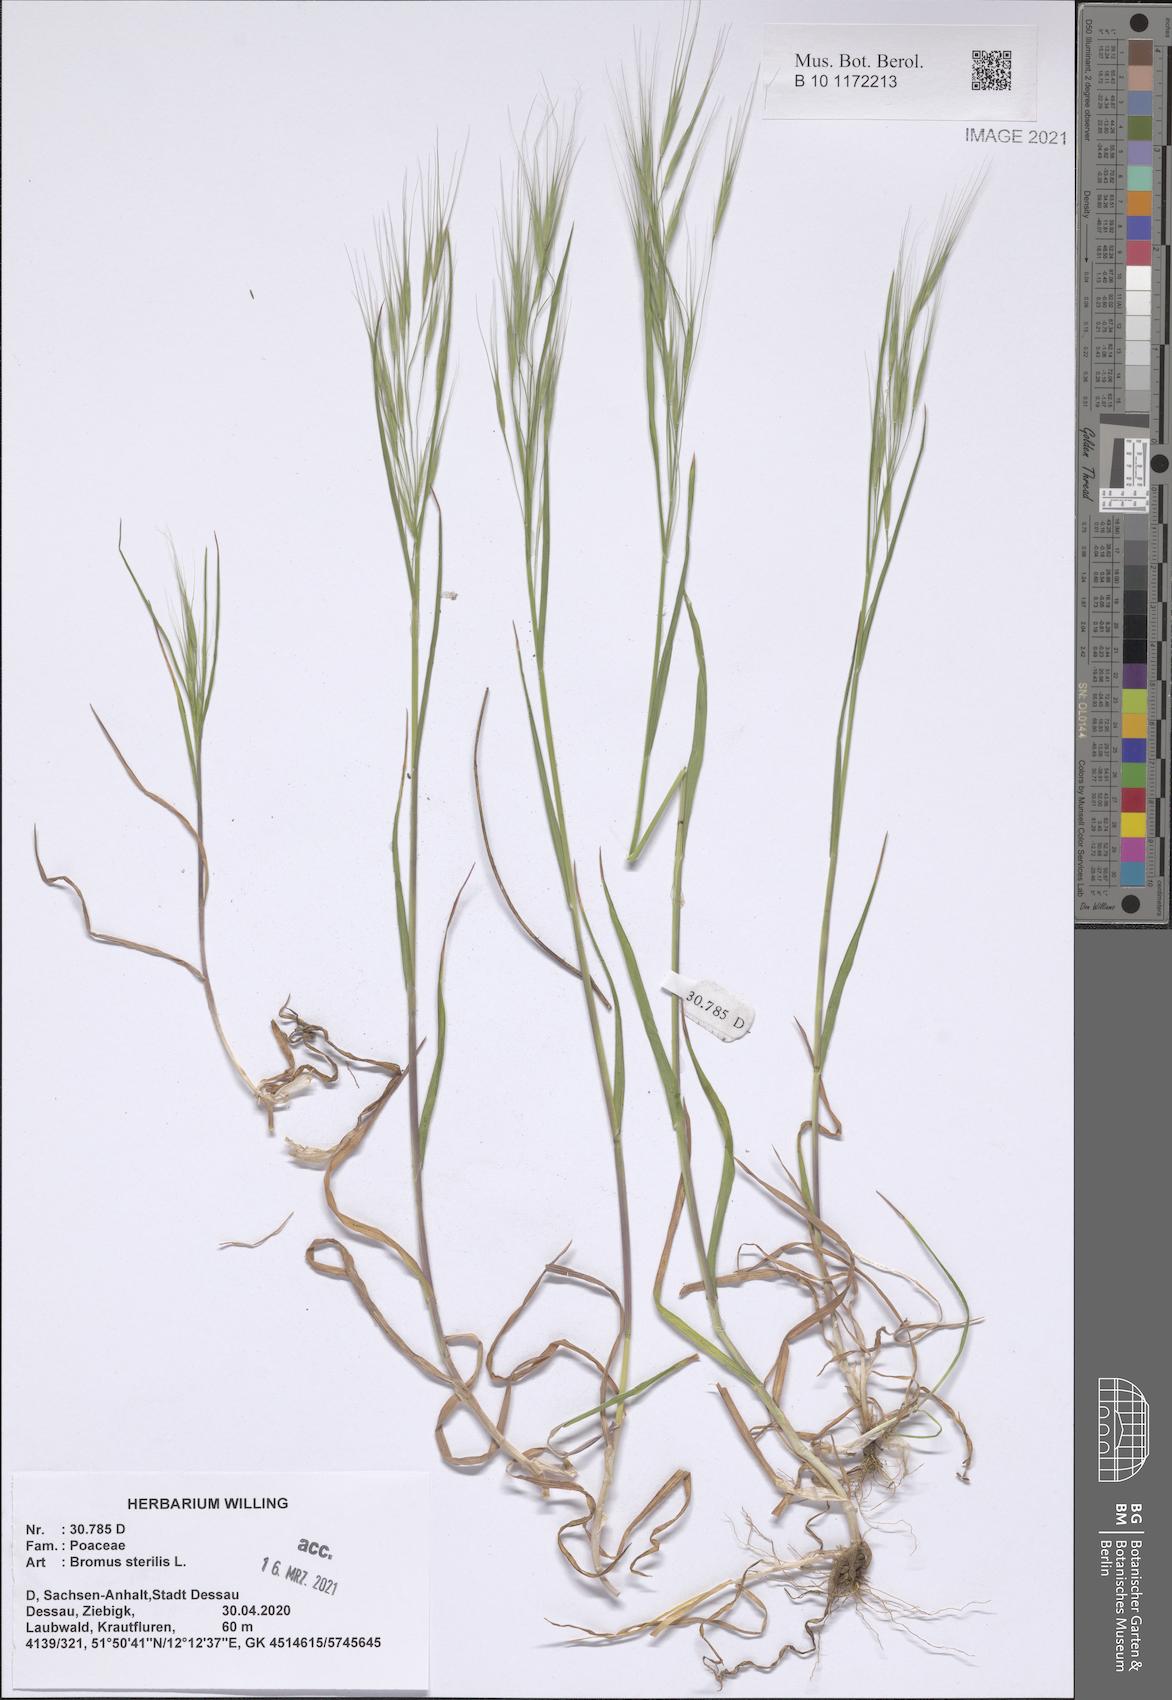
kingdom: Plantae
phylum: Tracheophyta
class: Liliopsida
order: Poales
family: Poaceae
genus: Bromus
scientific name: Bromus sterilis
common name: Poverty brome
